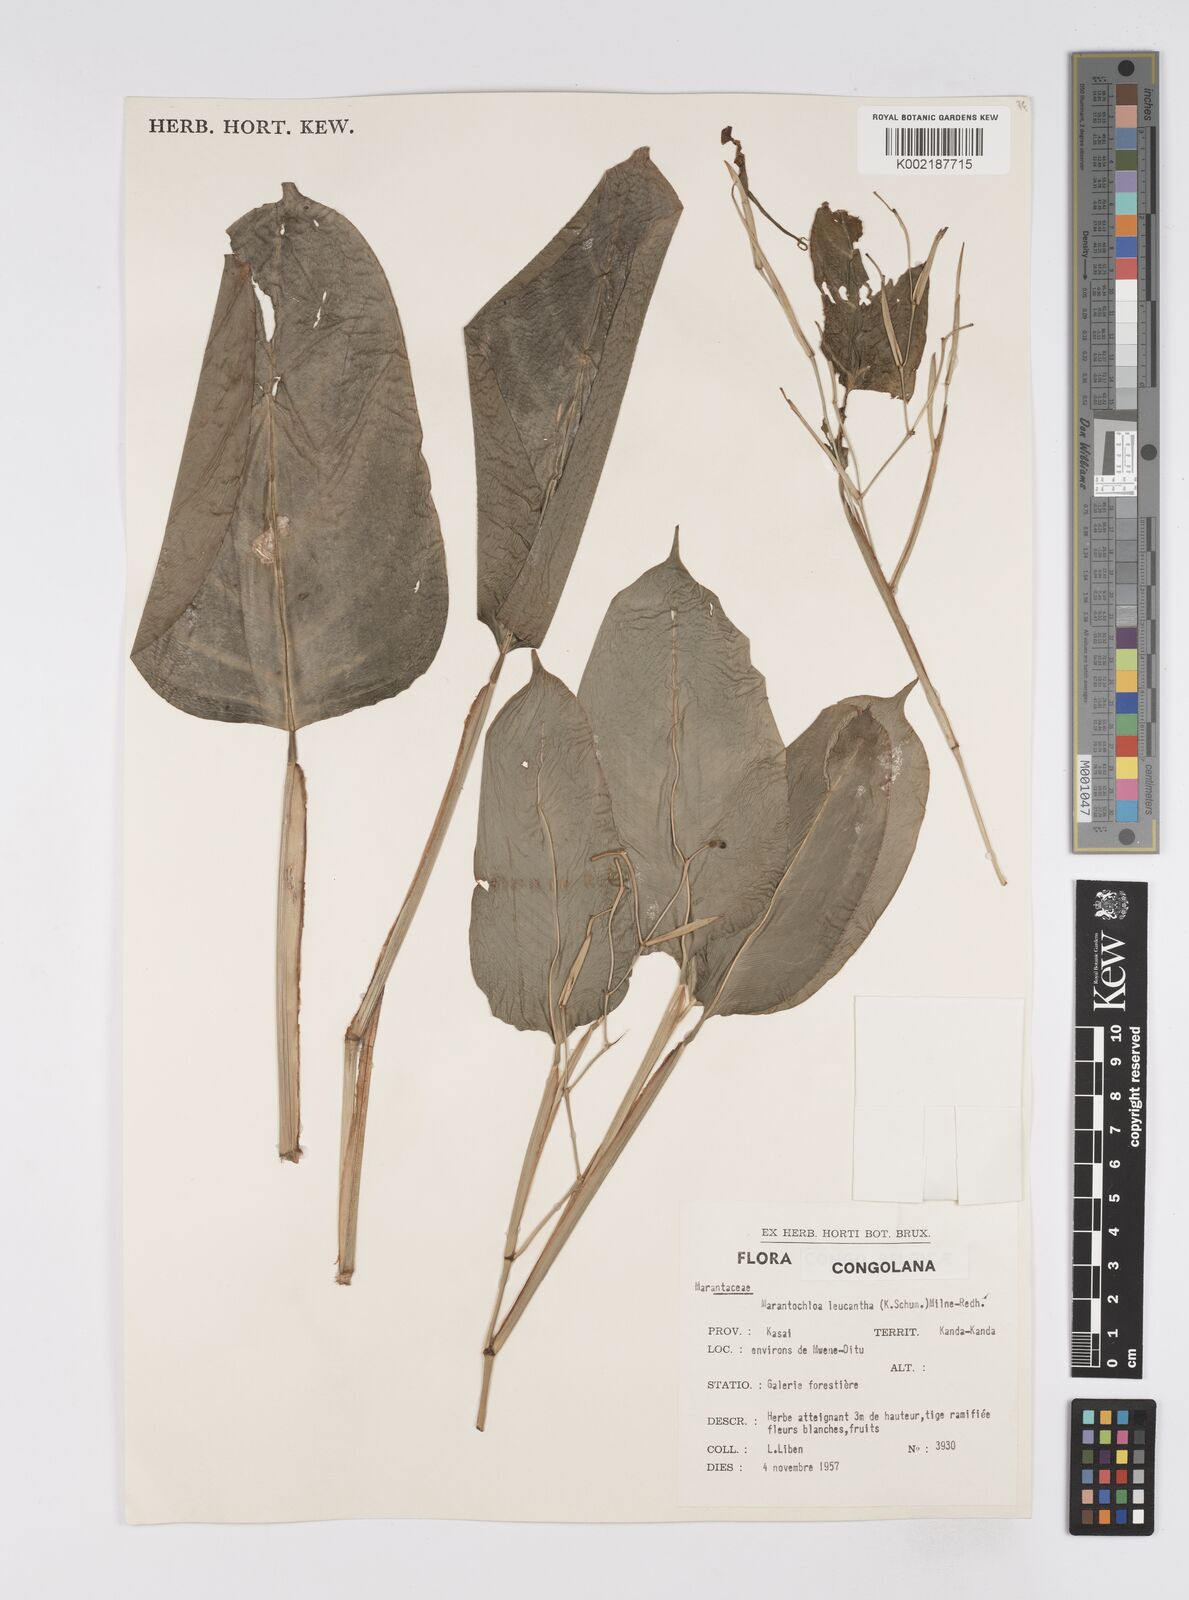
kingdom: Plantae
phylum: Tracheophyta
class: Liliopsida
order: Zingiberales
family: Marantaceae
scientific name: Marantaceae
